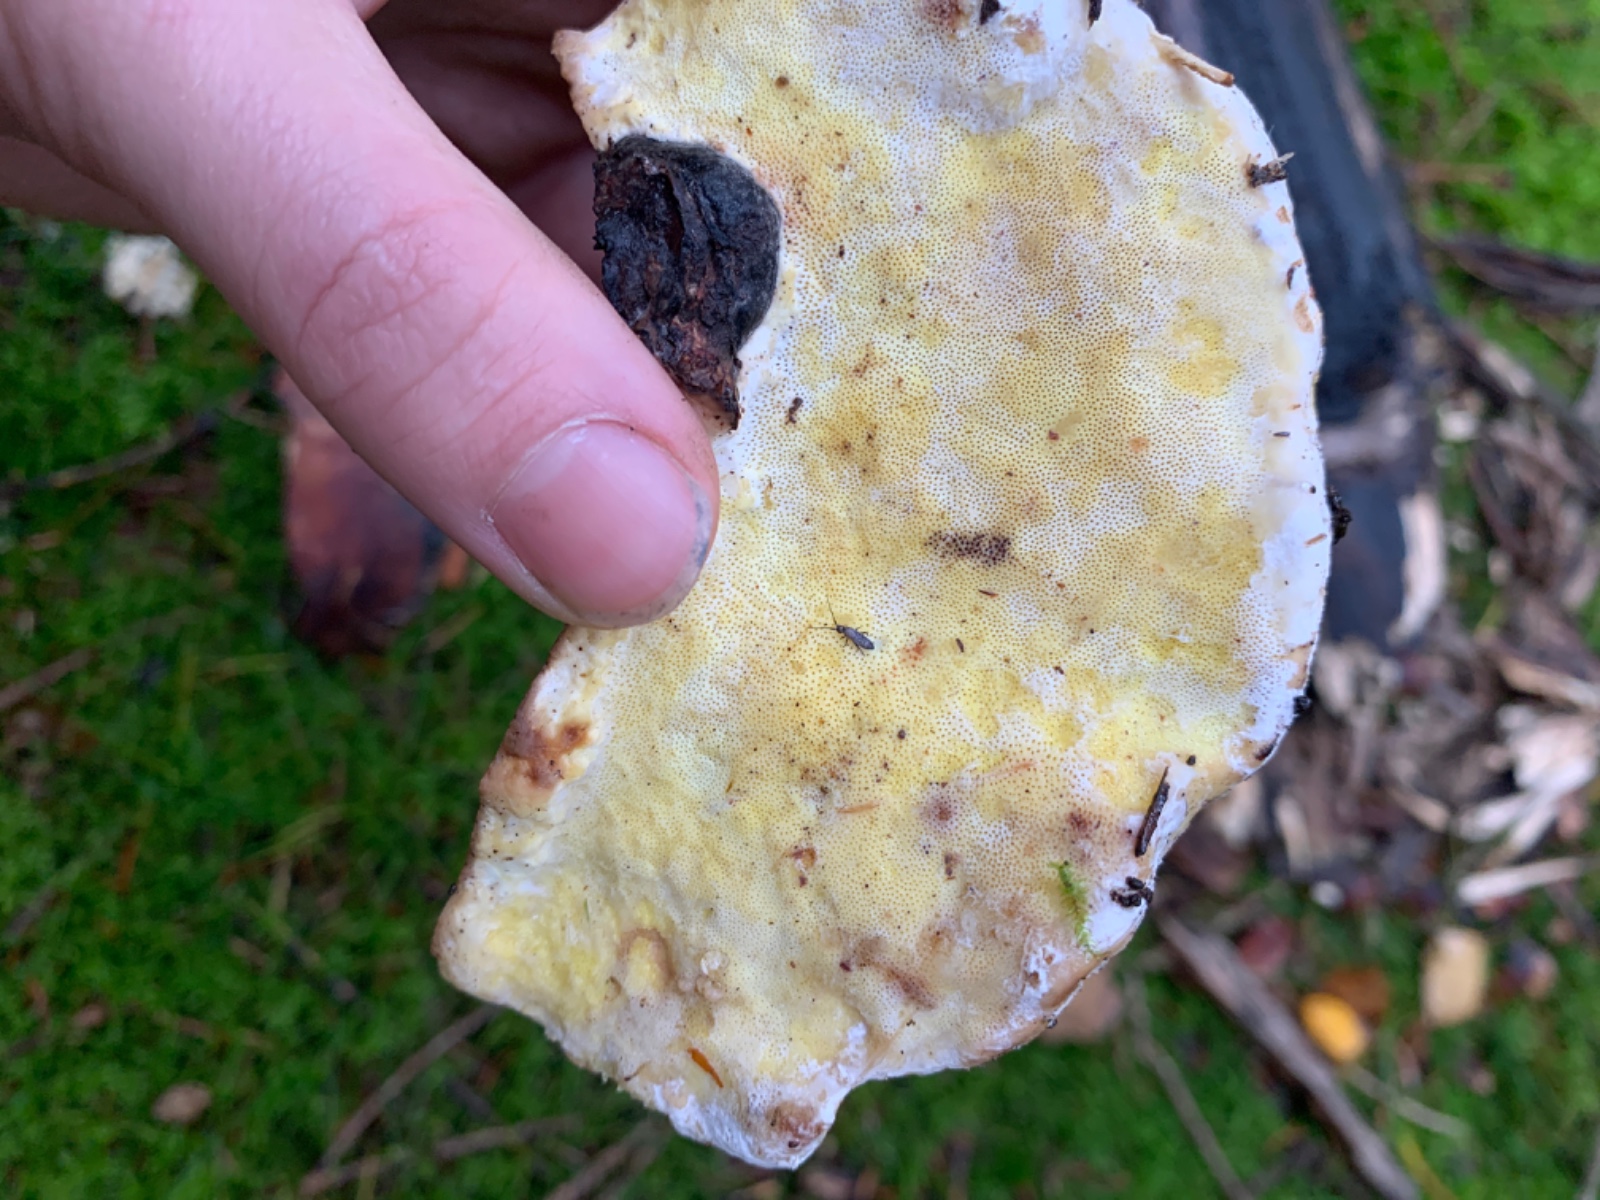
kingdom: Fungi
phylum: Basidiomycota
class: Agaricomycetes
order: Polyporales
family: Fomitopsidaceae
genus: Fomitopsis
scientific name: Fomitopsis pinicola
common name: randbæltet hovporesvamp
